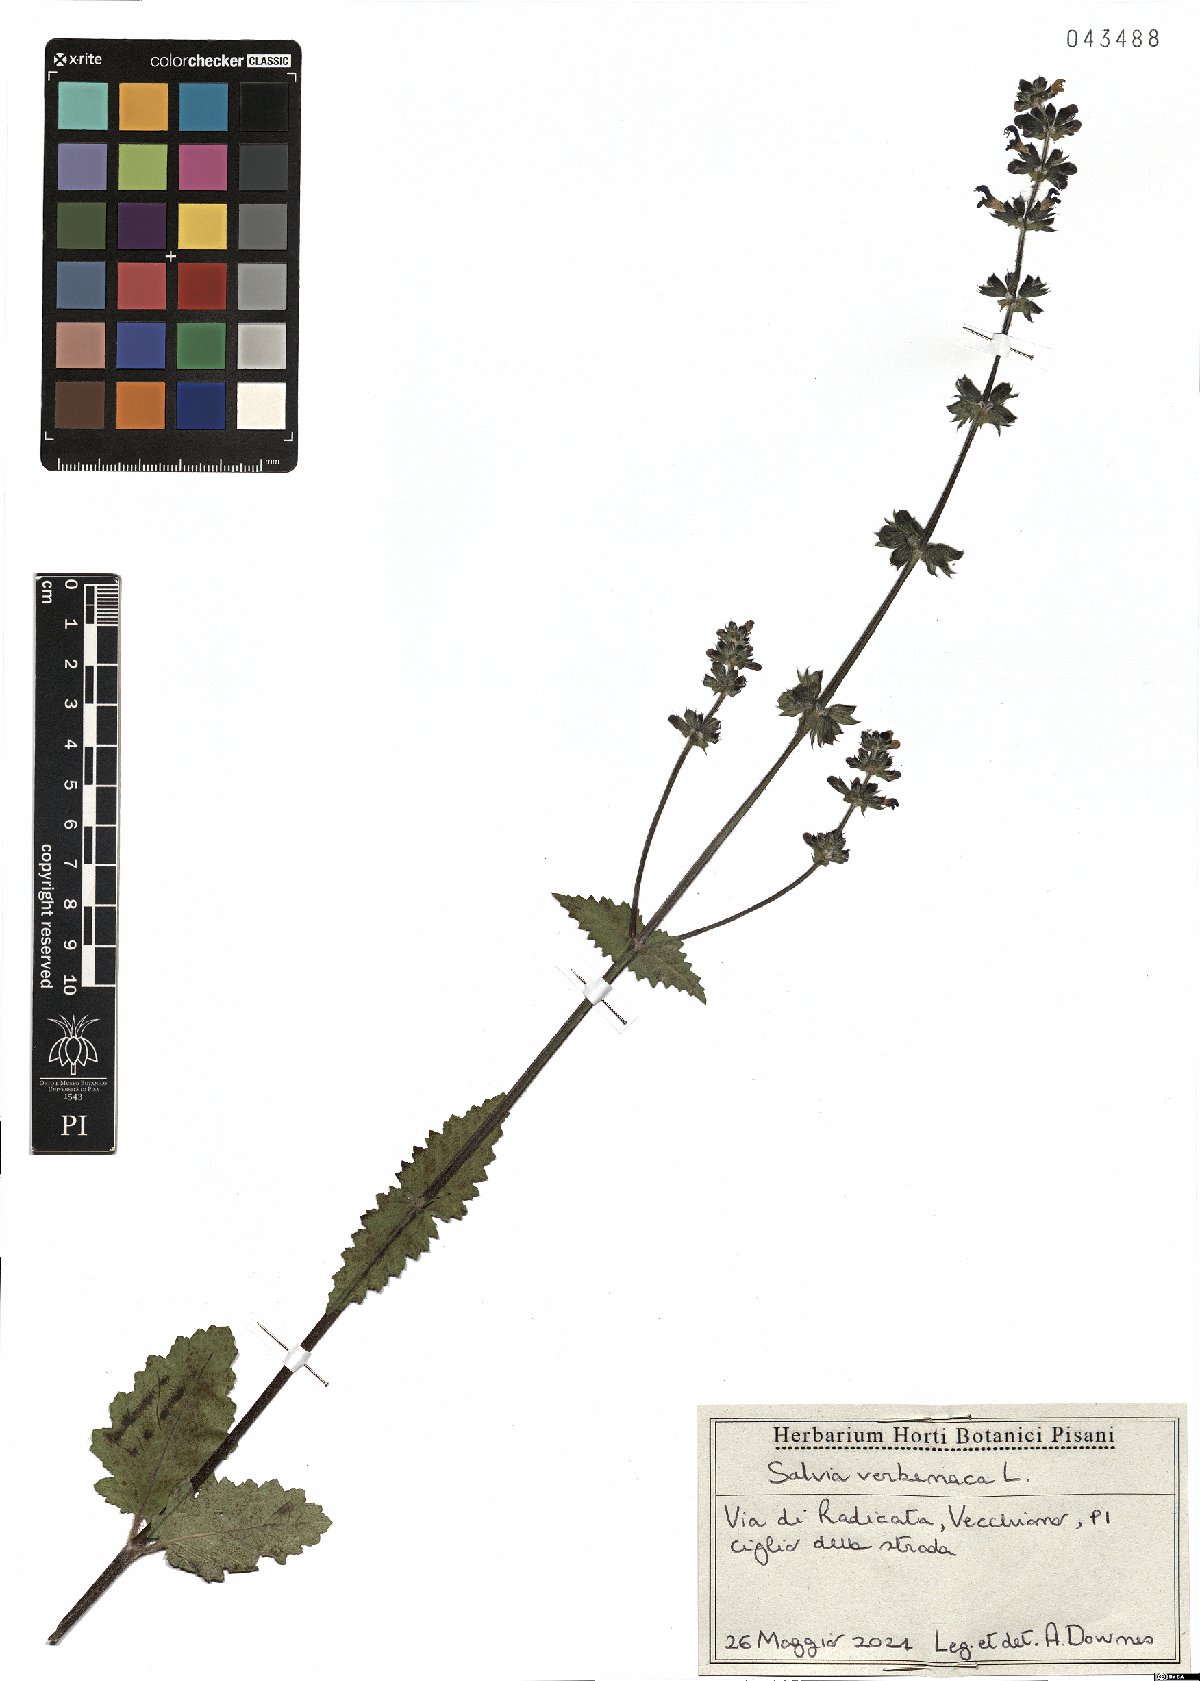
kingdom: Plantae
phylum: Tracheophyta
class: Magnoliopsida
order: Lamiales
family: Lamiaceae
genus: Salvia
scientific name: Salvia verbenaca
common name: Wild clary
